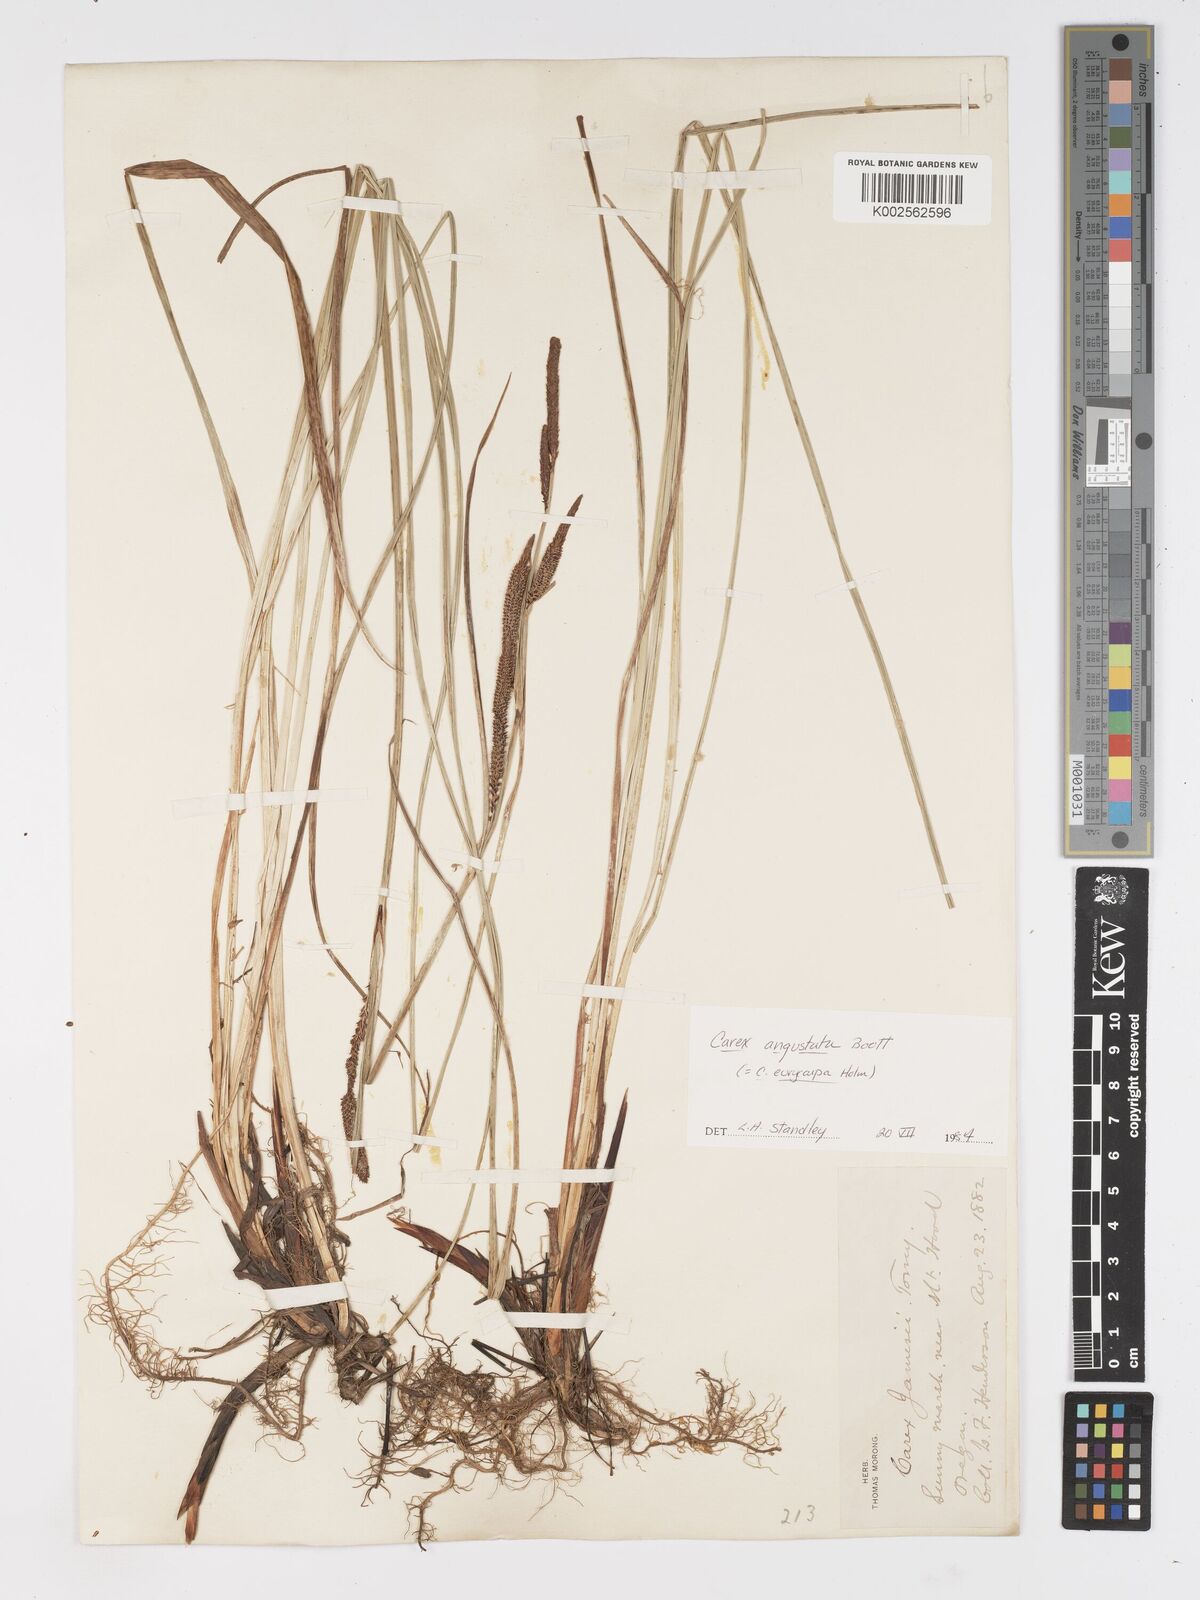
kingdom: Plantae
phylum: Tracheophyta
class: Liliopsida
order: Poales
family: Cyperaceae
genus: Carex
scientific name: Carex stricta
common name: Hummock sedge
